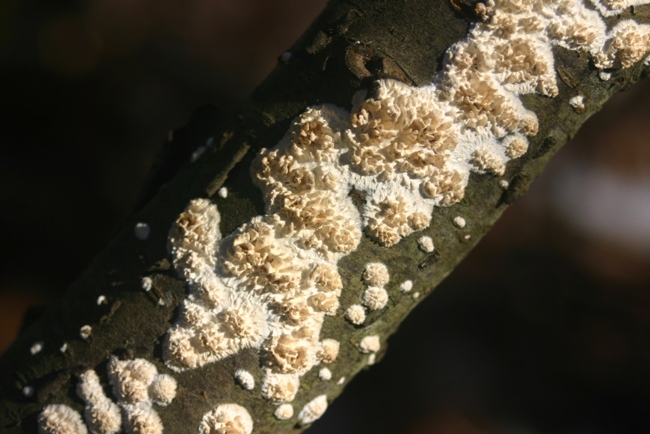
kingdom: Fungi
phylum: Basidiomycota
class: Agaricomycetes
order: Hymenochaetales
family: Schizoporaceae
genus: Xylodon
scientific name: Xylodon radula
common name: grovtandet kalkskind
